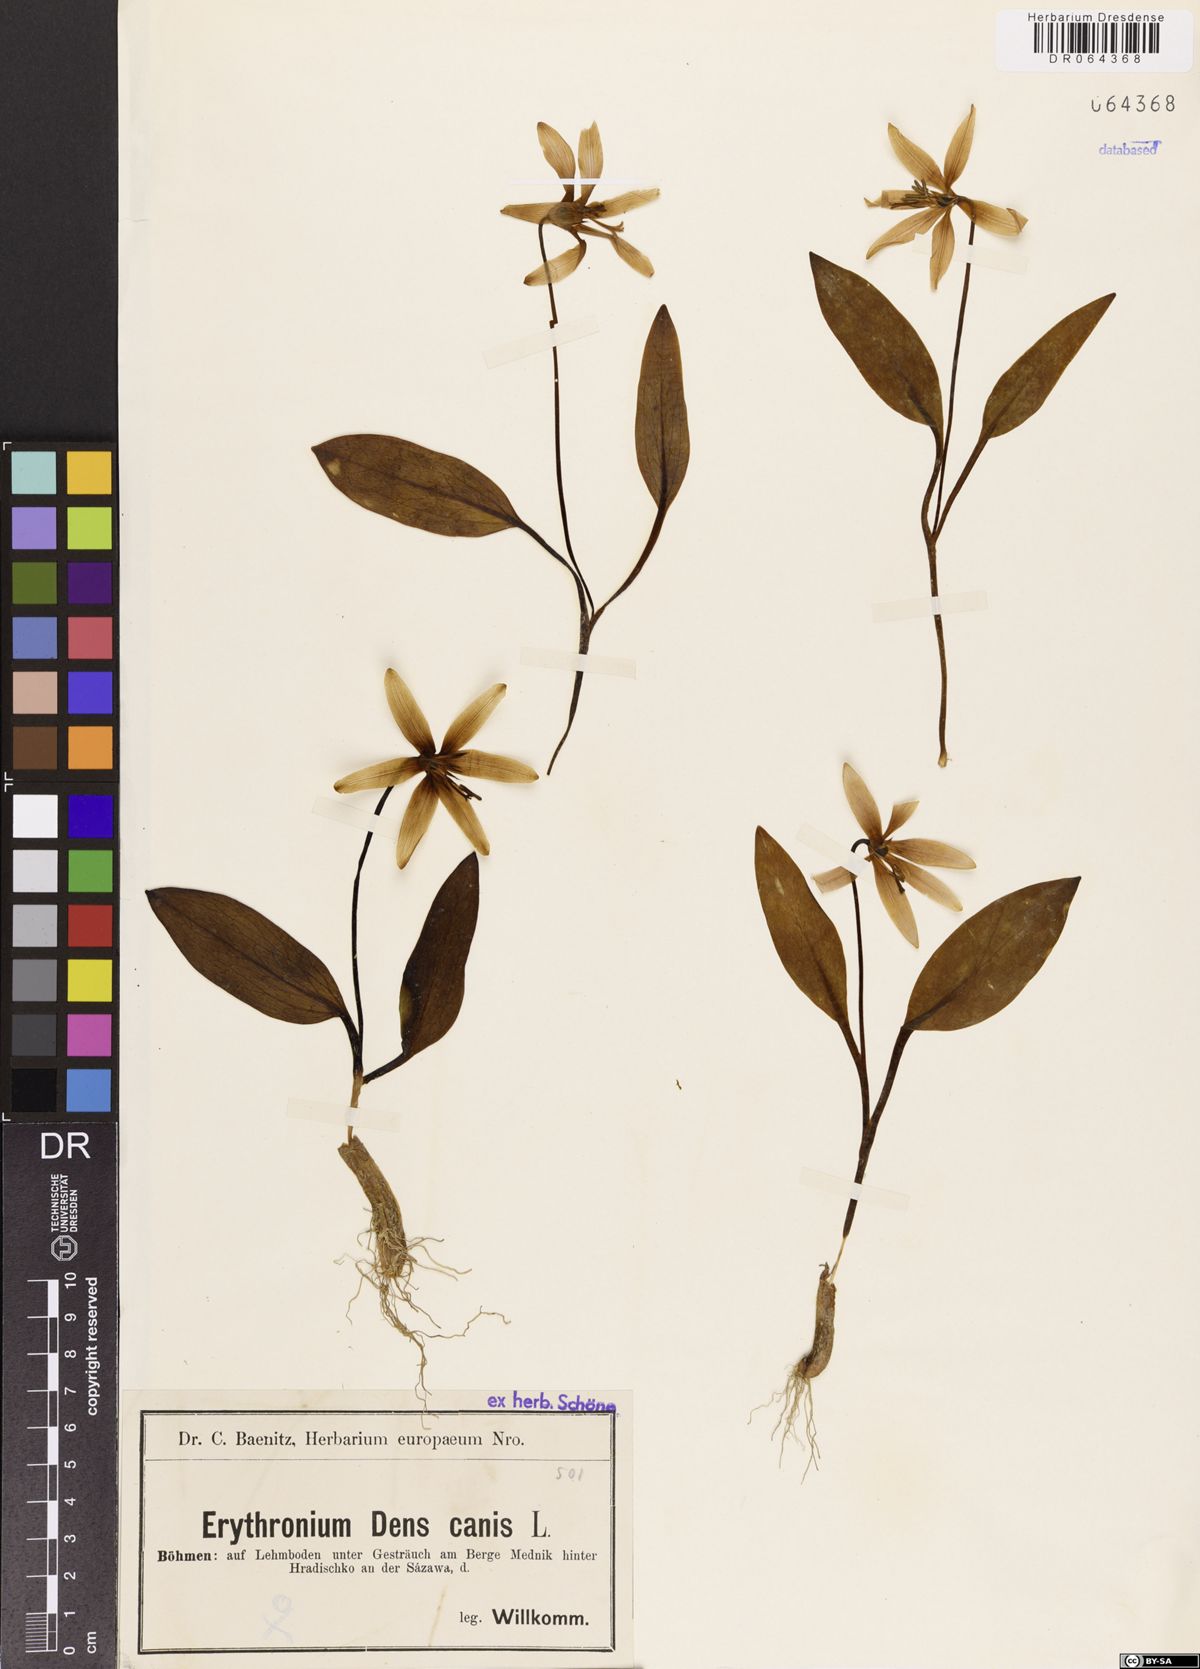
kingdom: Plantae
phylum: Tracheophyta
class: Liliopsida
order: Liliales
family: Liliaceae
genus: Erythronium
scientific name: Erythronium dens-canis
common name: Dog's-tooth-violet
